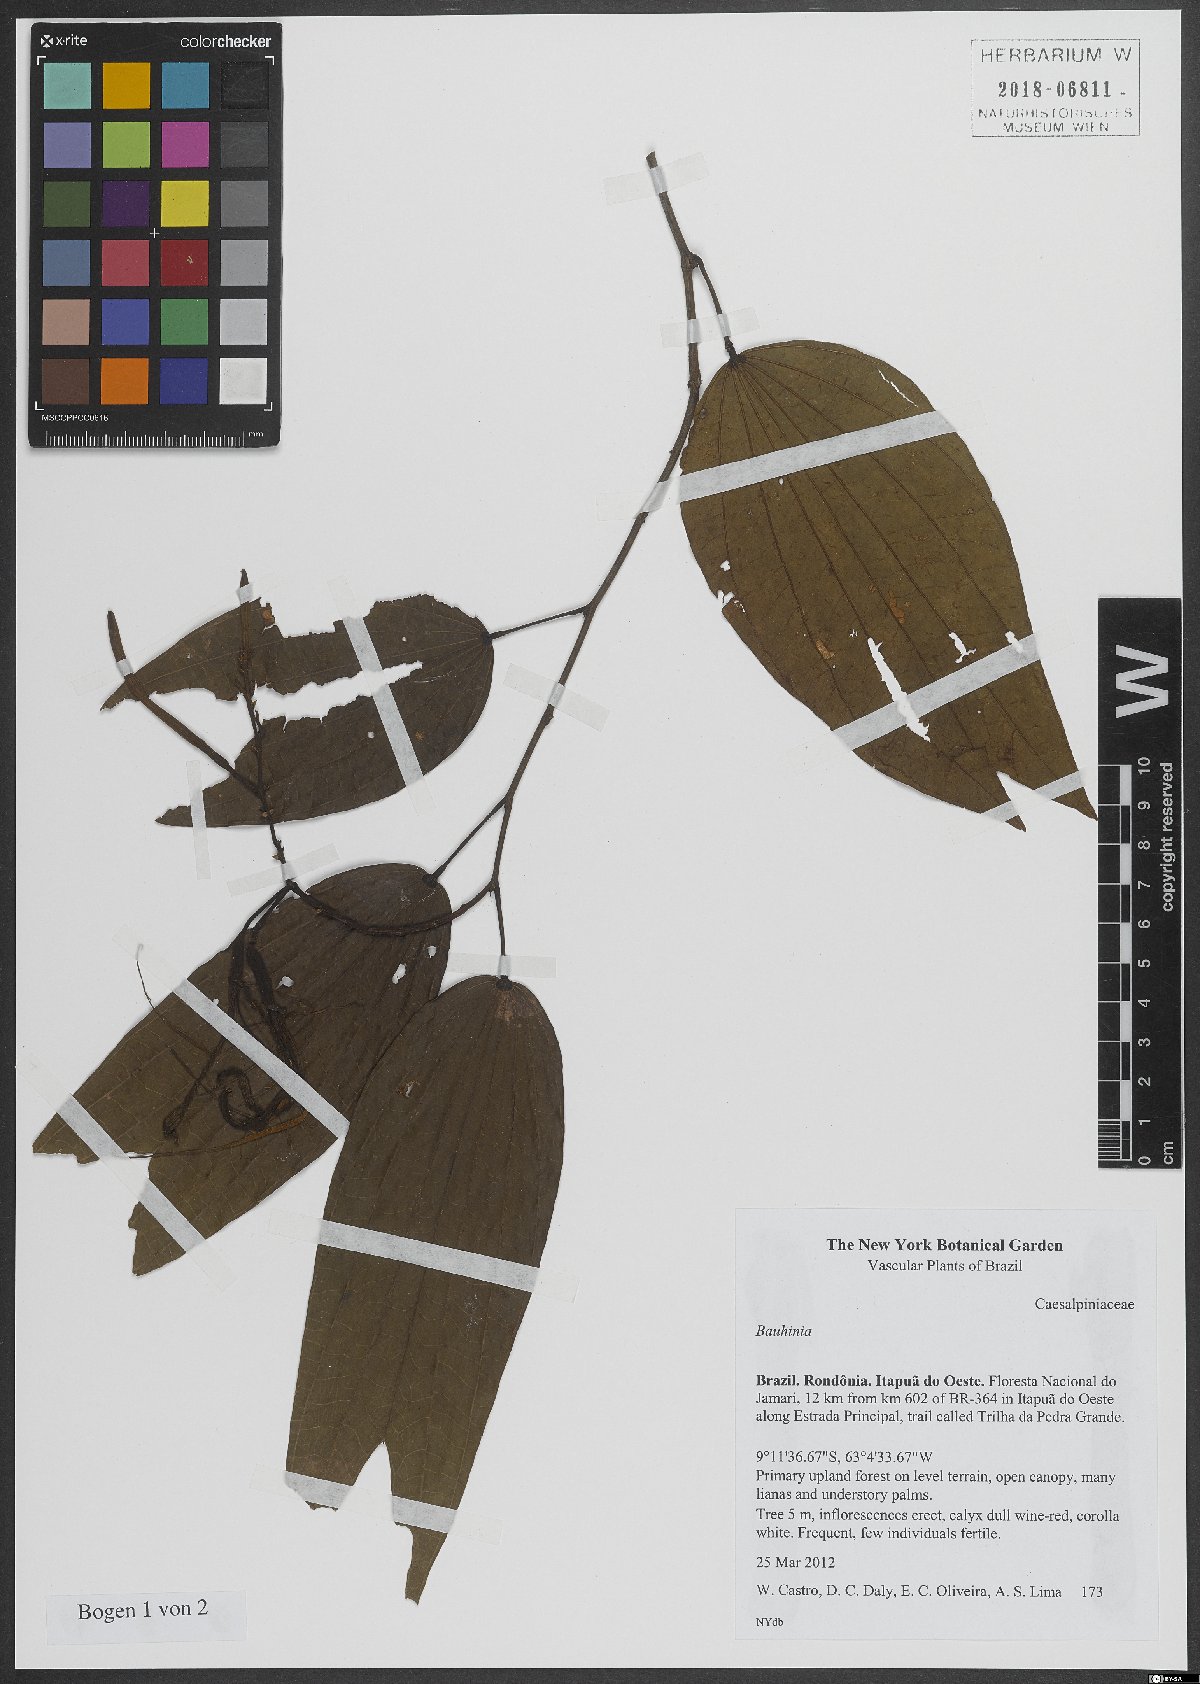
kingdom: Plantae
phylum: Tracheophyta
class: Magnoliopsida
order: Fabales
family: Fabaceae
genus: Bauhinia
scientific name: Bauhinia
